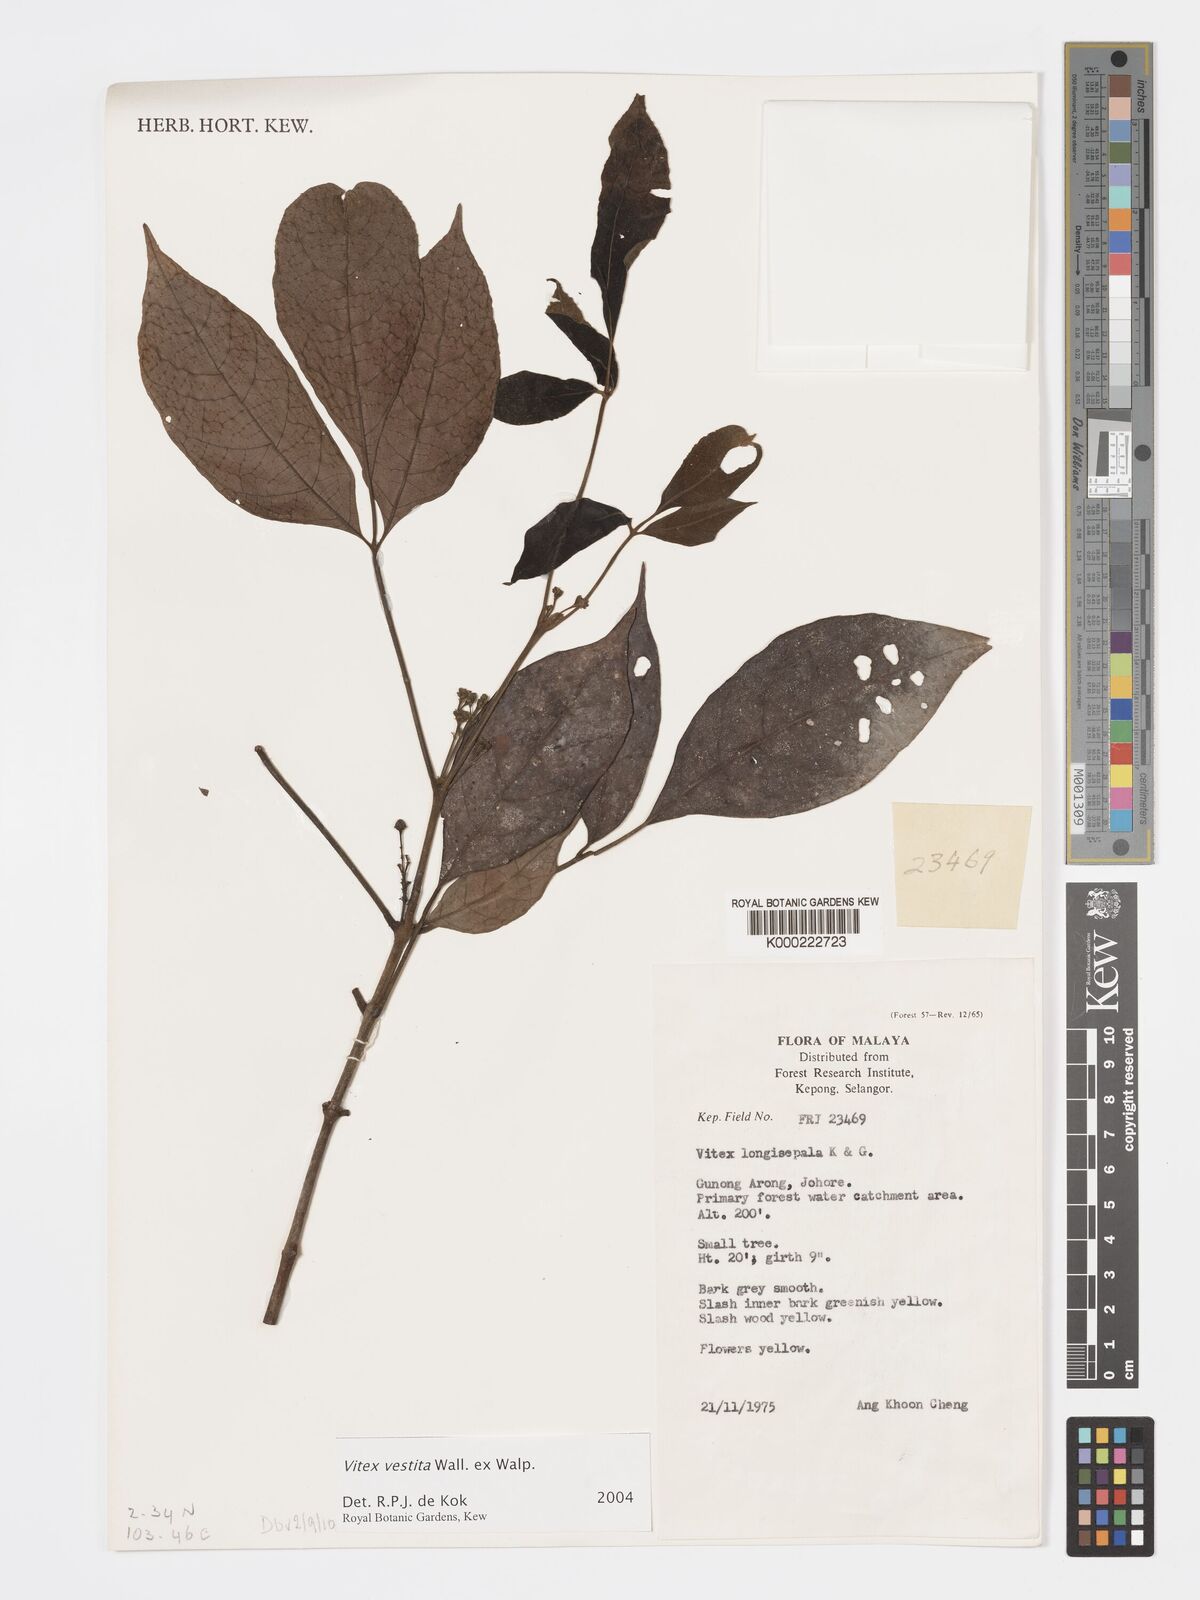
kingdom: Plantae
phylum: Tracheophyta
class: Magnoliopsida
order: Lamiales
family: Lamiaceae
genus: Vitex
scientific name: Vitex vestita
